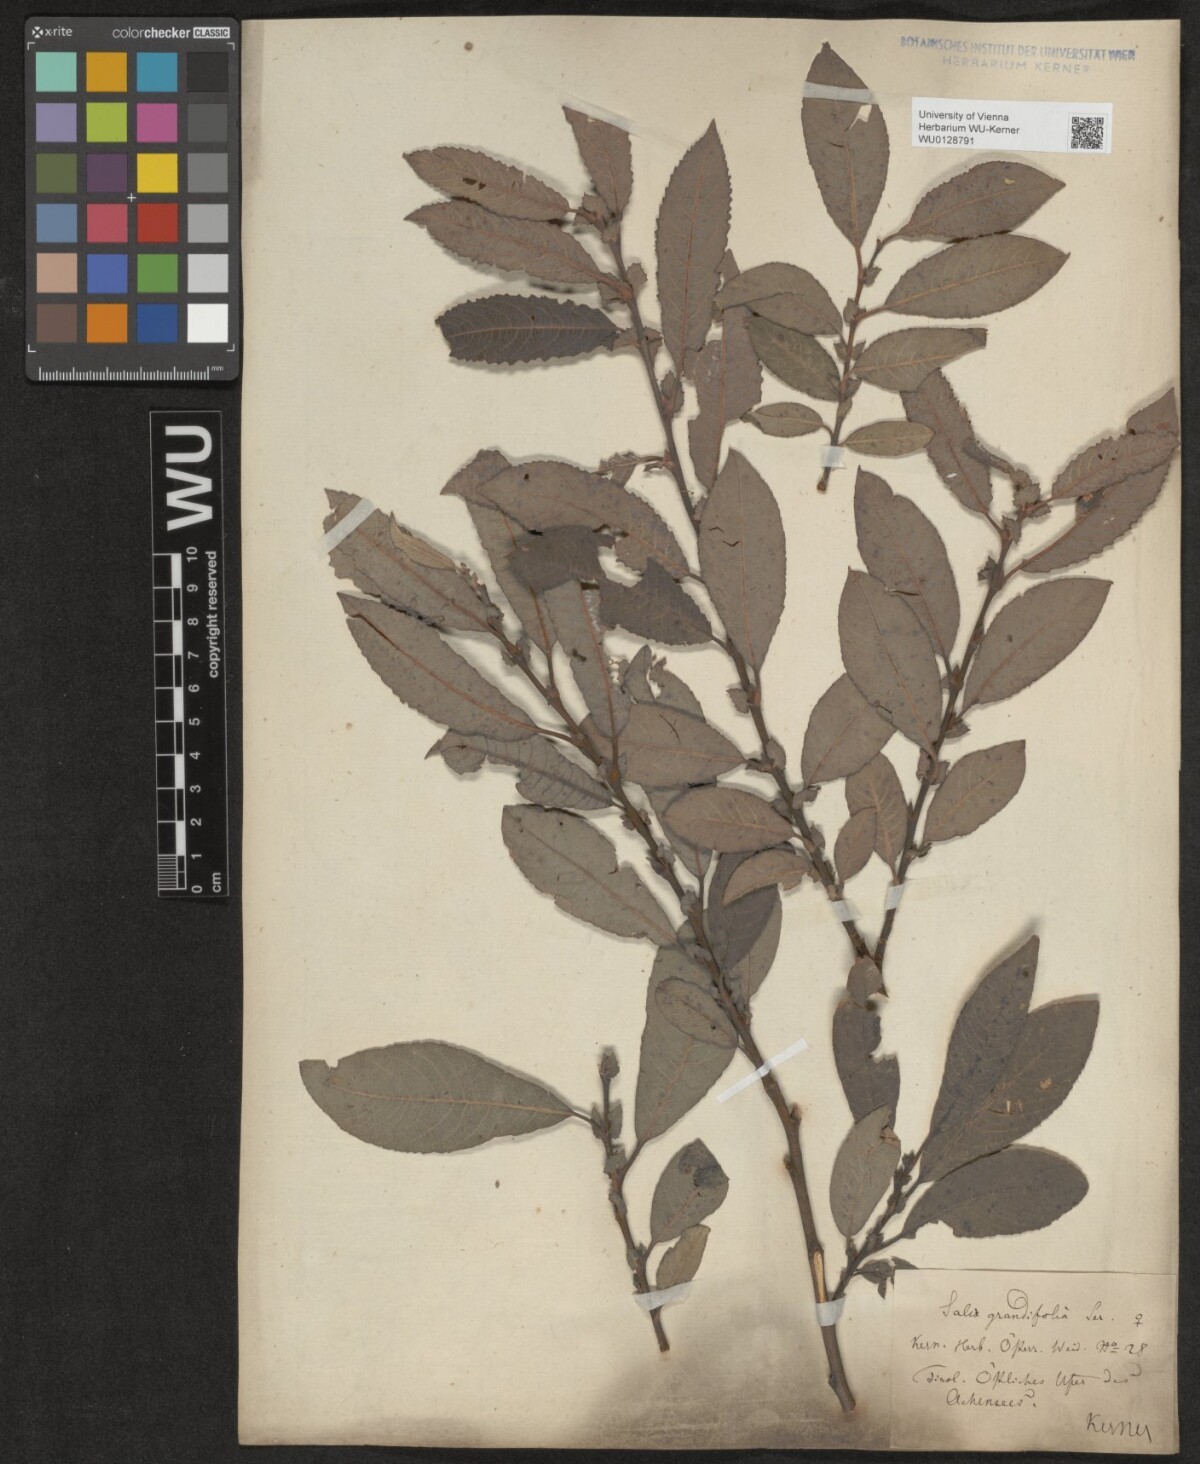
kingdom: Plantae
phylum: Tracheophyta
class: Magnoliopsida
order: Malpighiales
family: Salicaceae
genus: Salix
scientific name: Salix appendiculata
